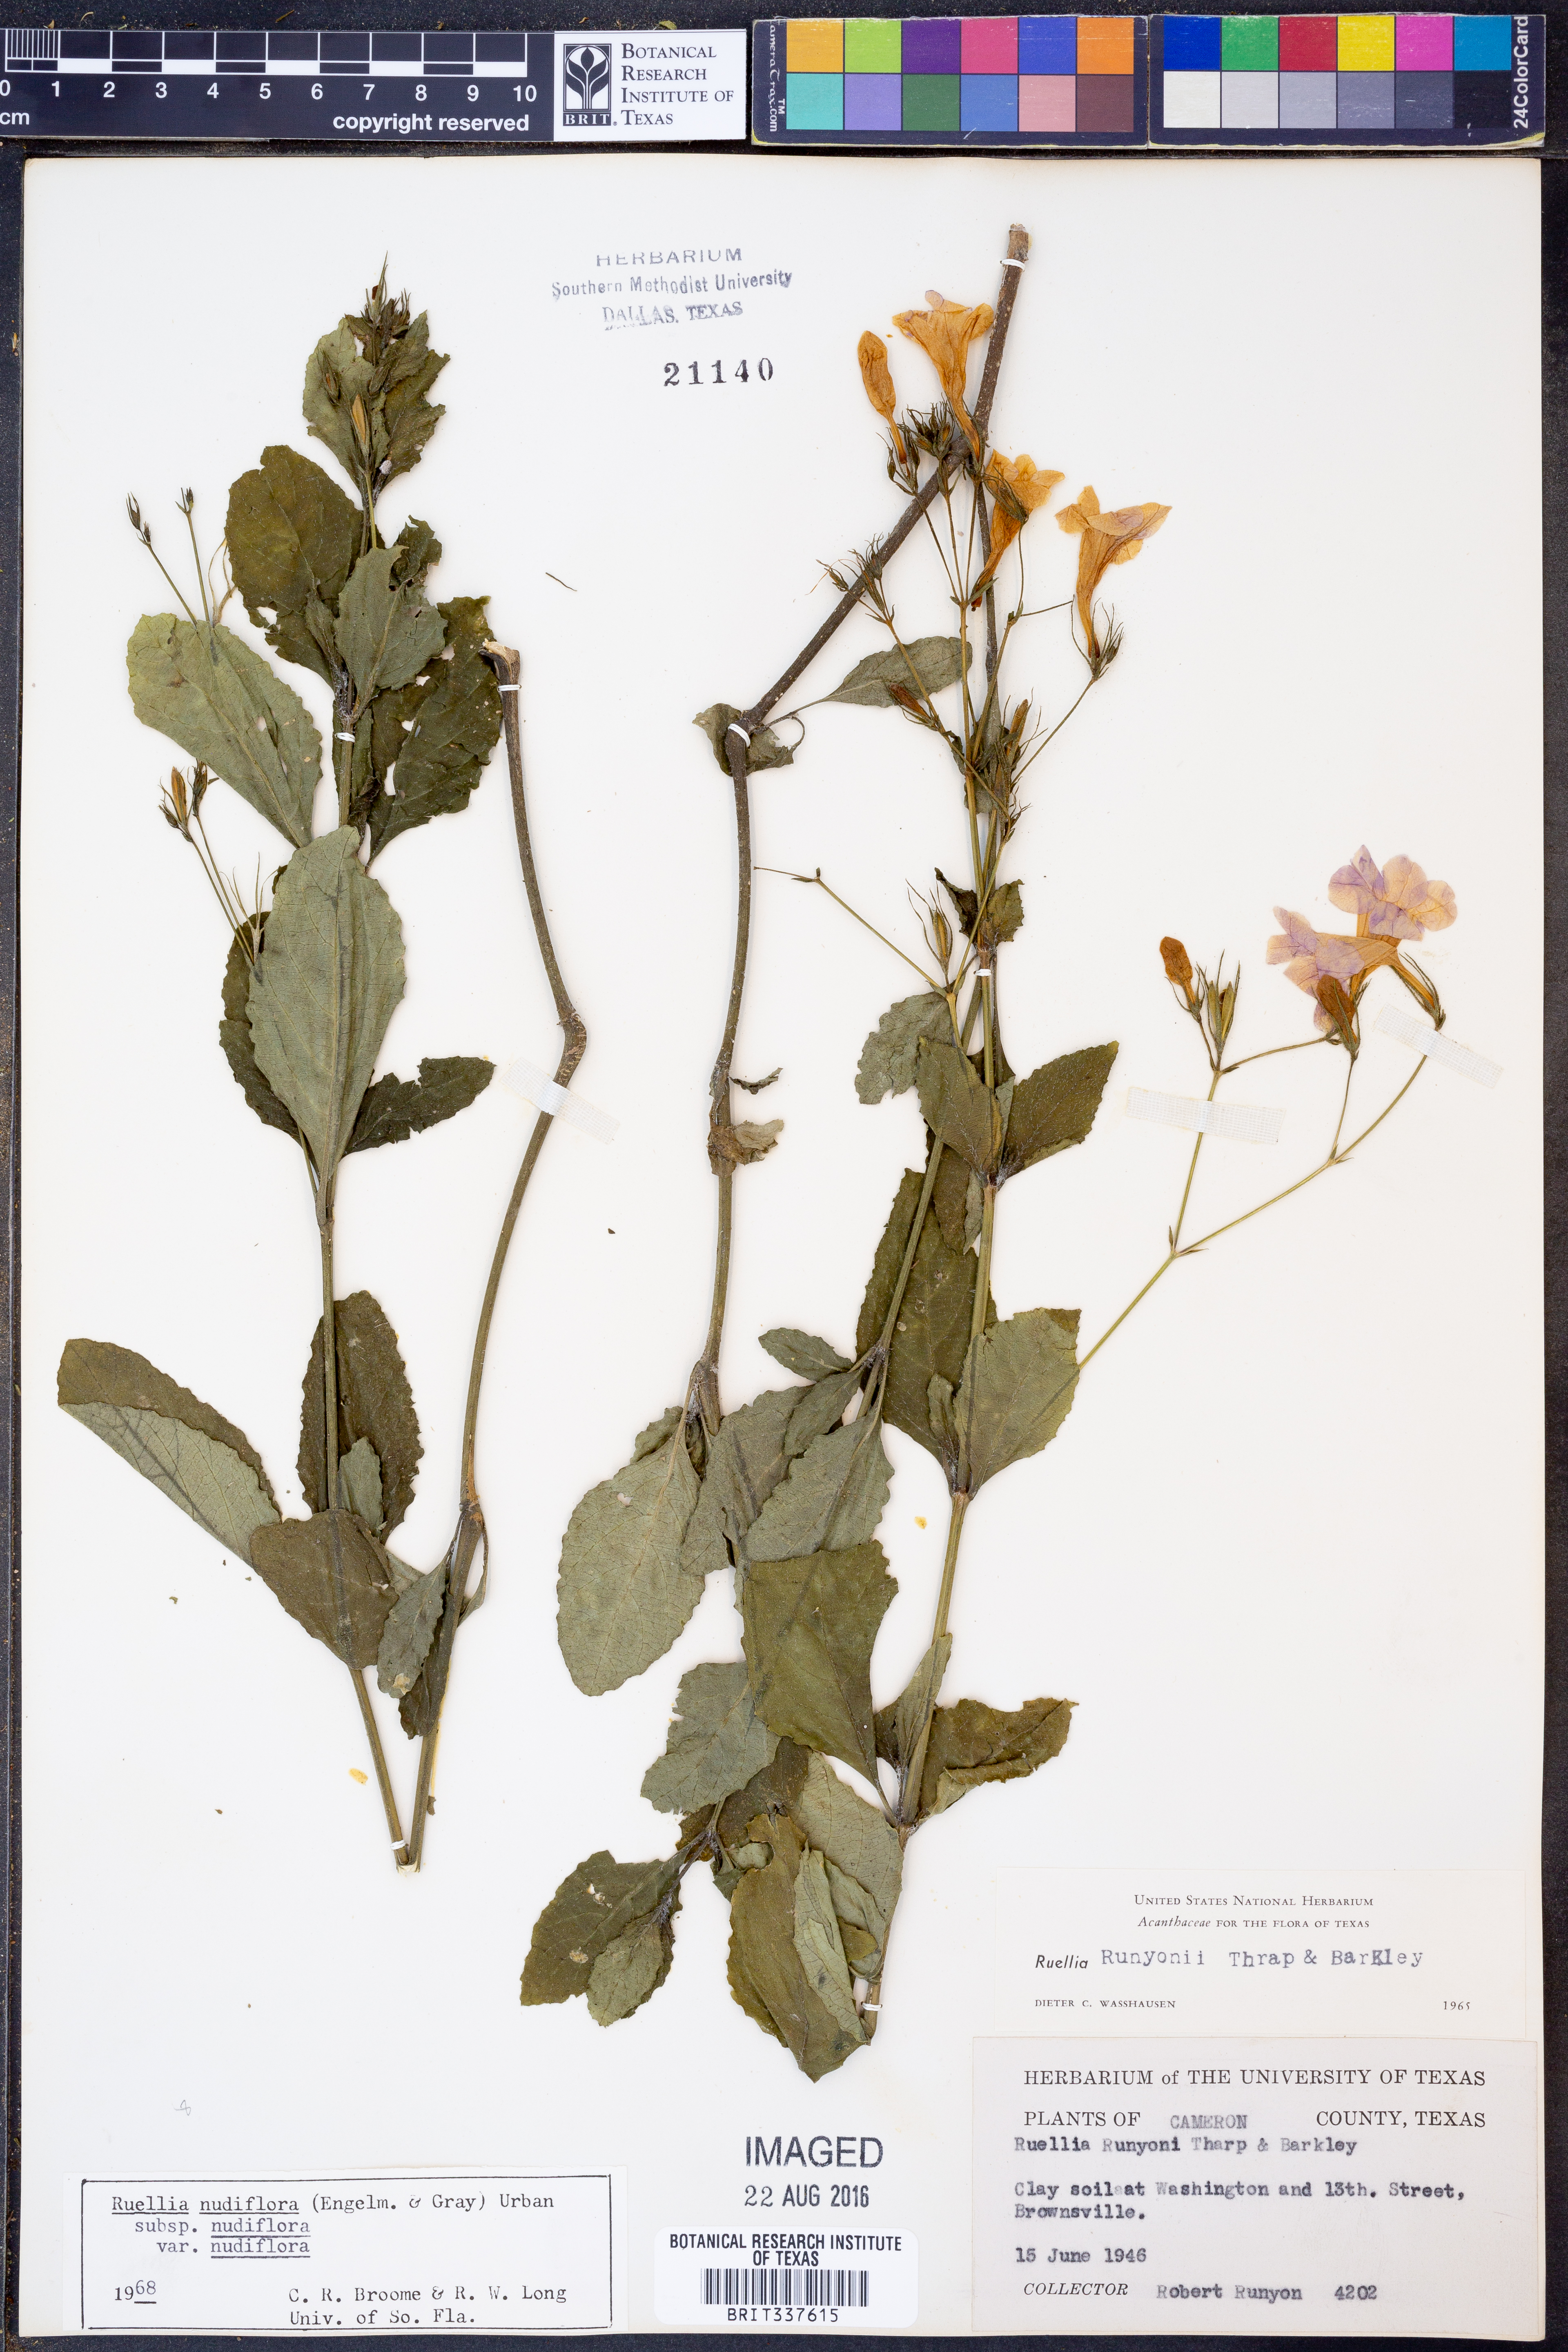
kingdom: Plantae
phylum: Tracheophyta
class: Magnoliopsida
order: Lamiales
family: Acanthaceae
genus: Ruellia
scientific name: Ruellia ciliatiflora
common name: Hairyflower wild petunia
